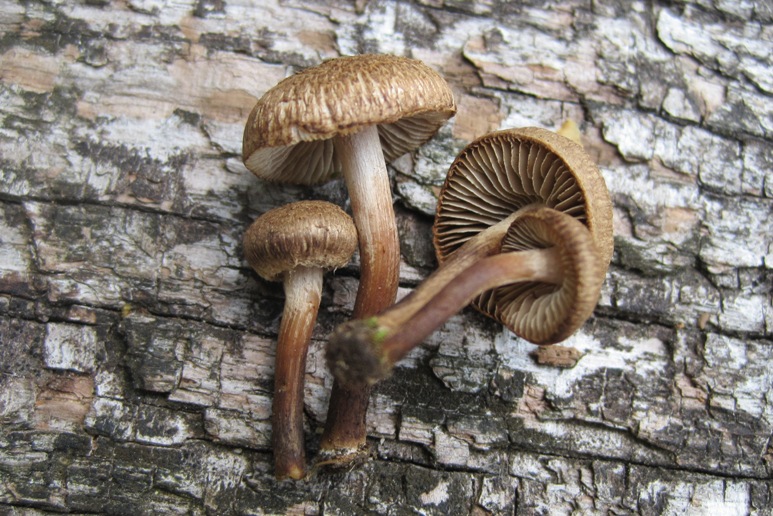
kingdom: Fungi
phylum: Basidiomycota
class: Agaricomycetes
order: Agaricales
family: Inocybaceae
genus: Inocybe
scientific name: Inocybe lacera
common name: laset trævlhat
